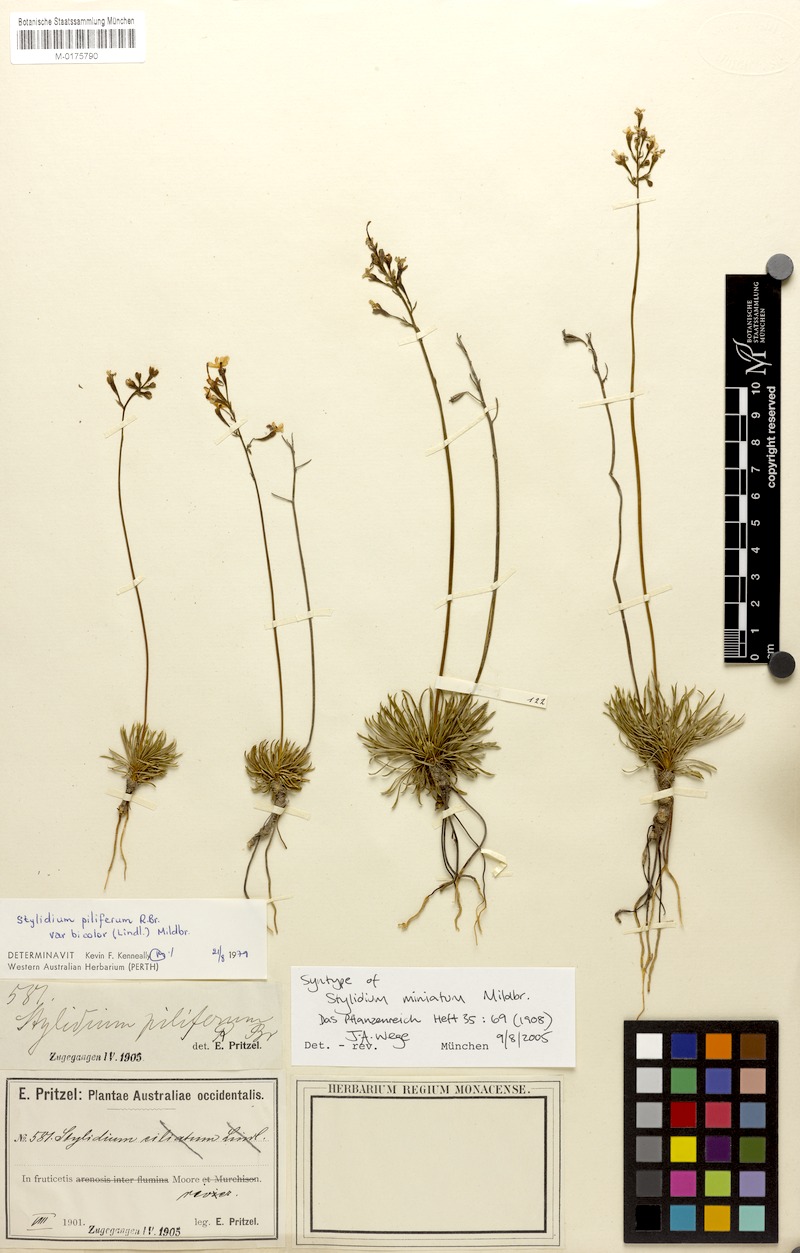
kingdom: Plantae
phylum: Tracheophyta
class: Magnoliopsida
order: Asterales
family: Stylidiaceae
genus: Stylidium
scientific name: Stylidium bicolor
